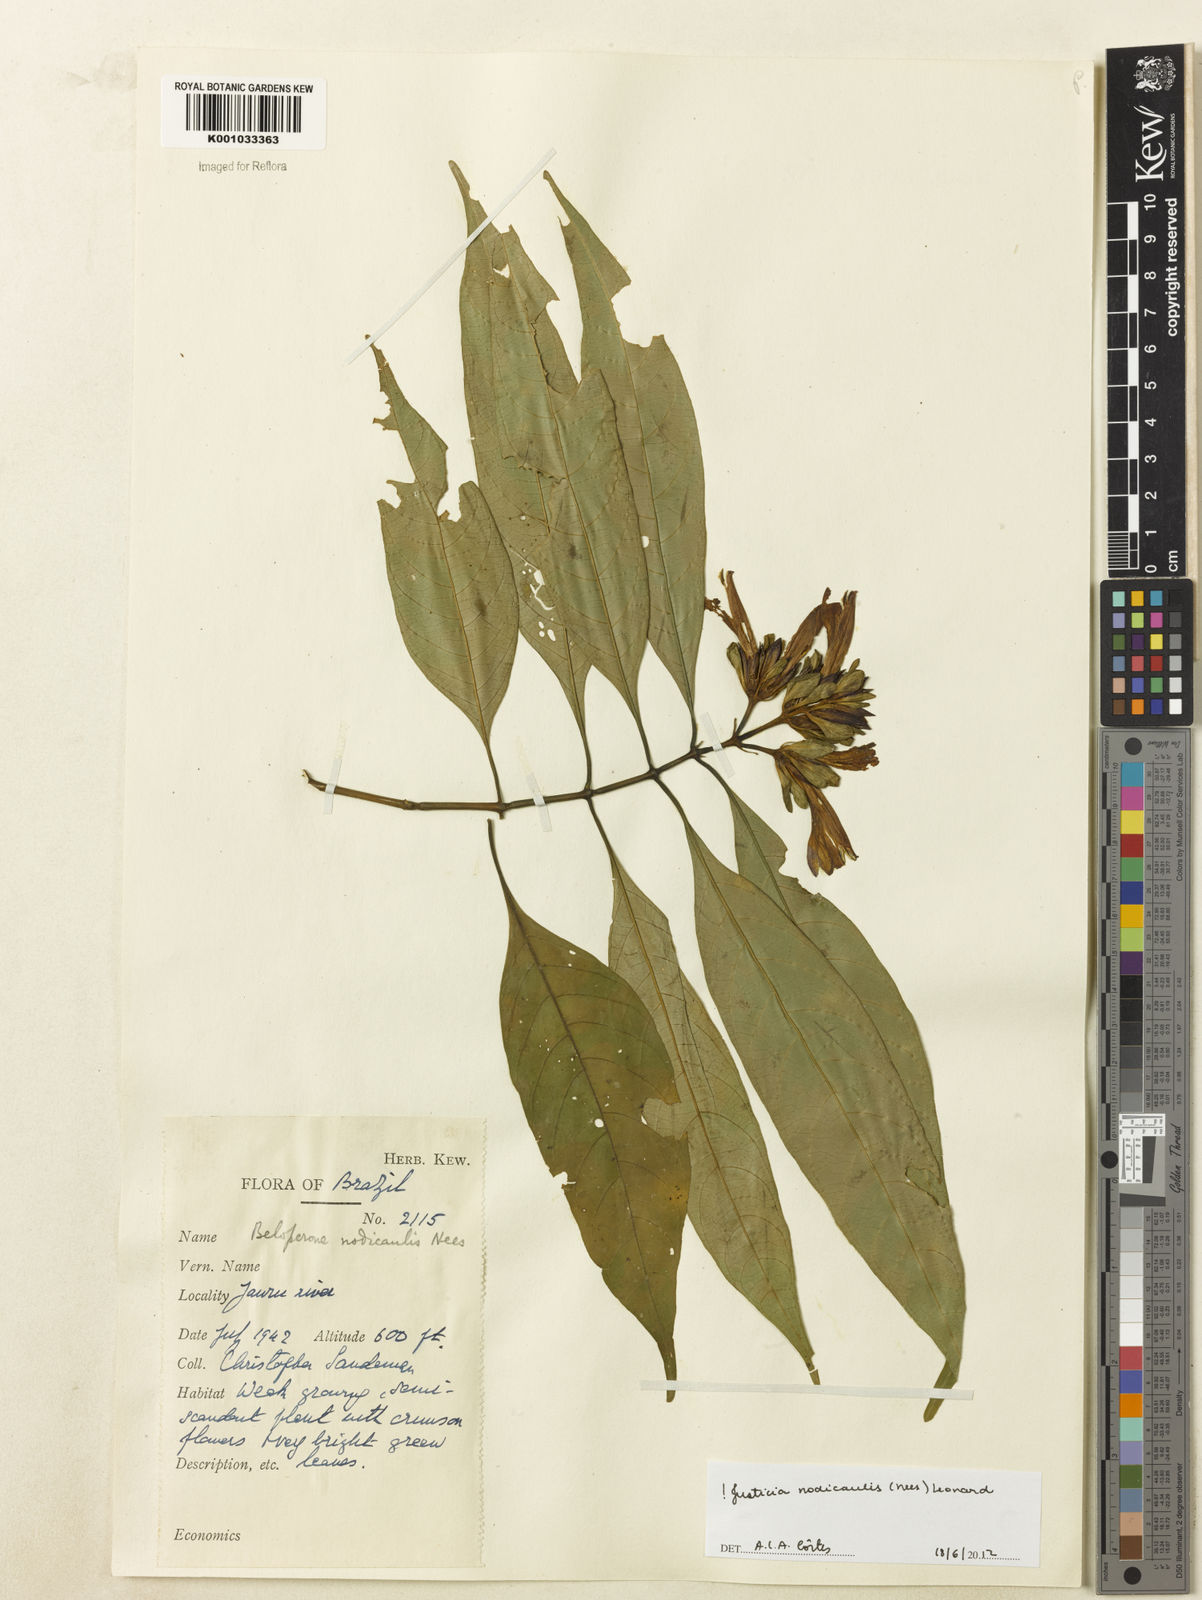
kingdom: Plantae
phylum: Tracheophyta
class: Magnoliopsida
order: Lamiales
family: Acanthaceae
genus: Justicia
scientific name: Justicia nodicaulis
